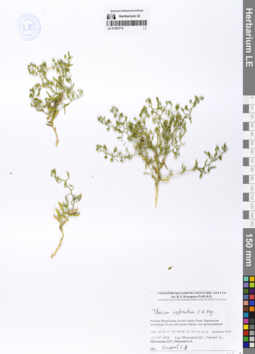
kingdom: Plantae
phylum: Tracheophyta
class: Magnoliopsida
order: Santalales
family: Thesiaceae
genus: Thesium
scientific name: Thesium refractum
